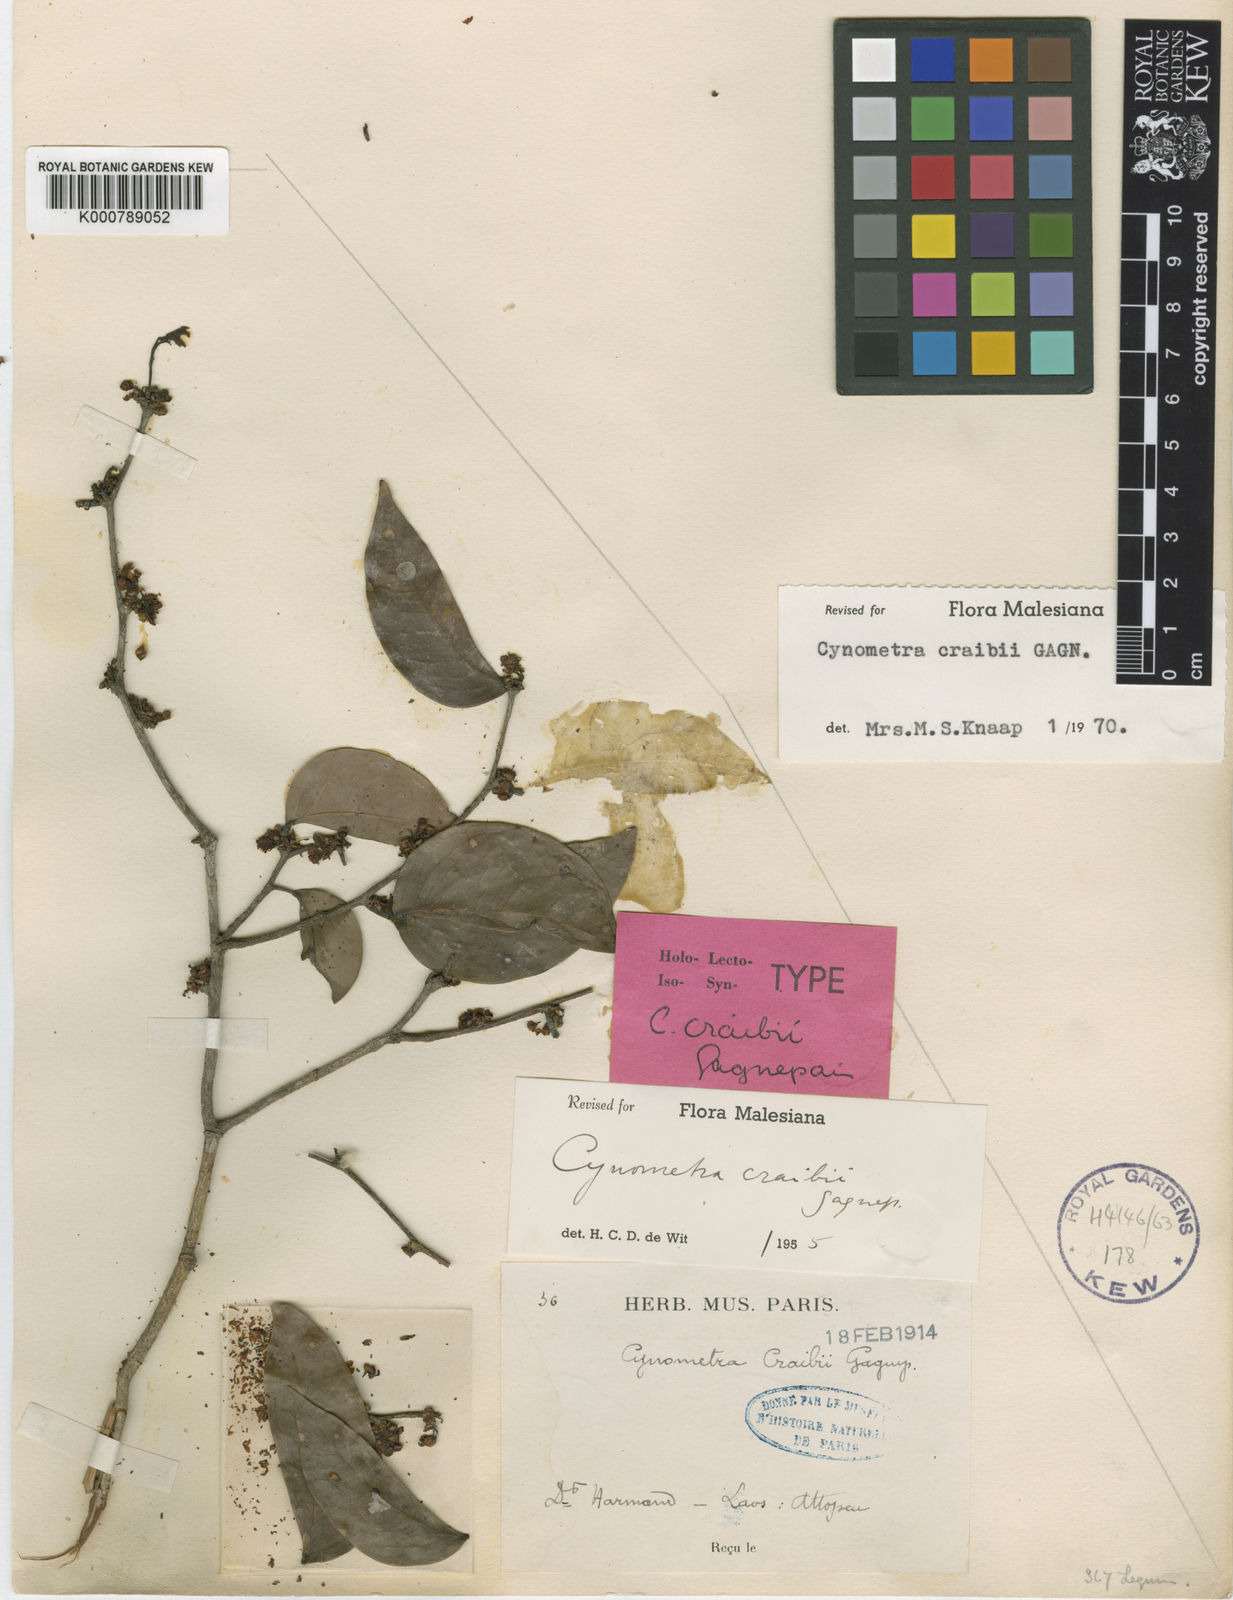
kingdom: Plantae
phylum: Tracheophyta
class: Magnoliopsida
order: Fabales
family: Fabaceae
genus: Cynometra
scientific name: Cynometra craibii
